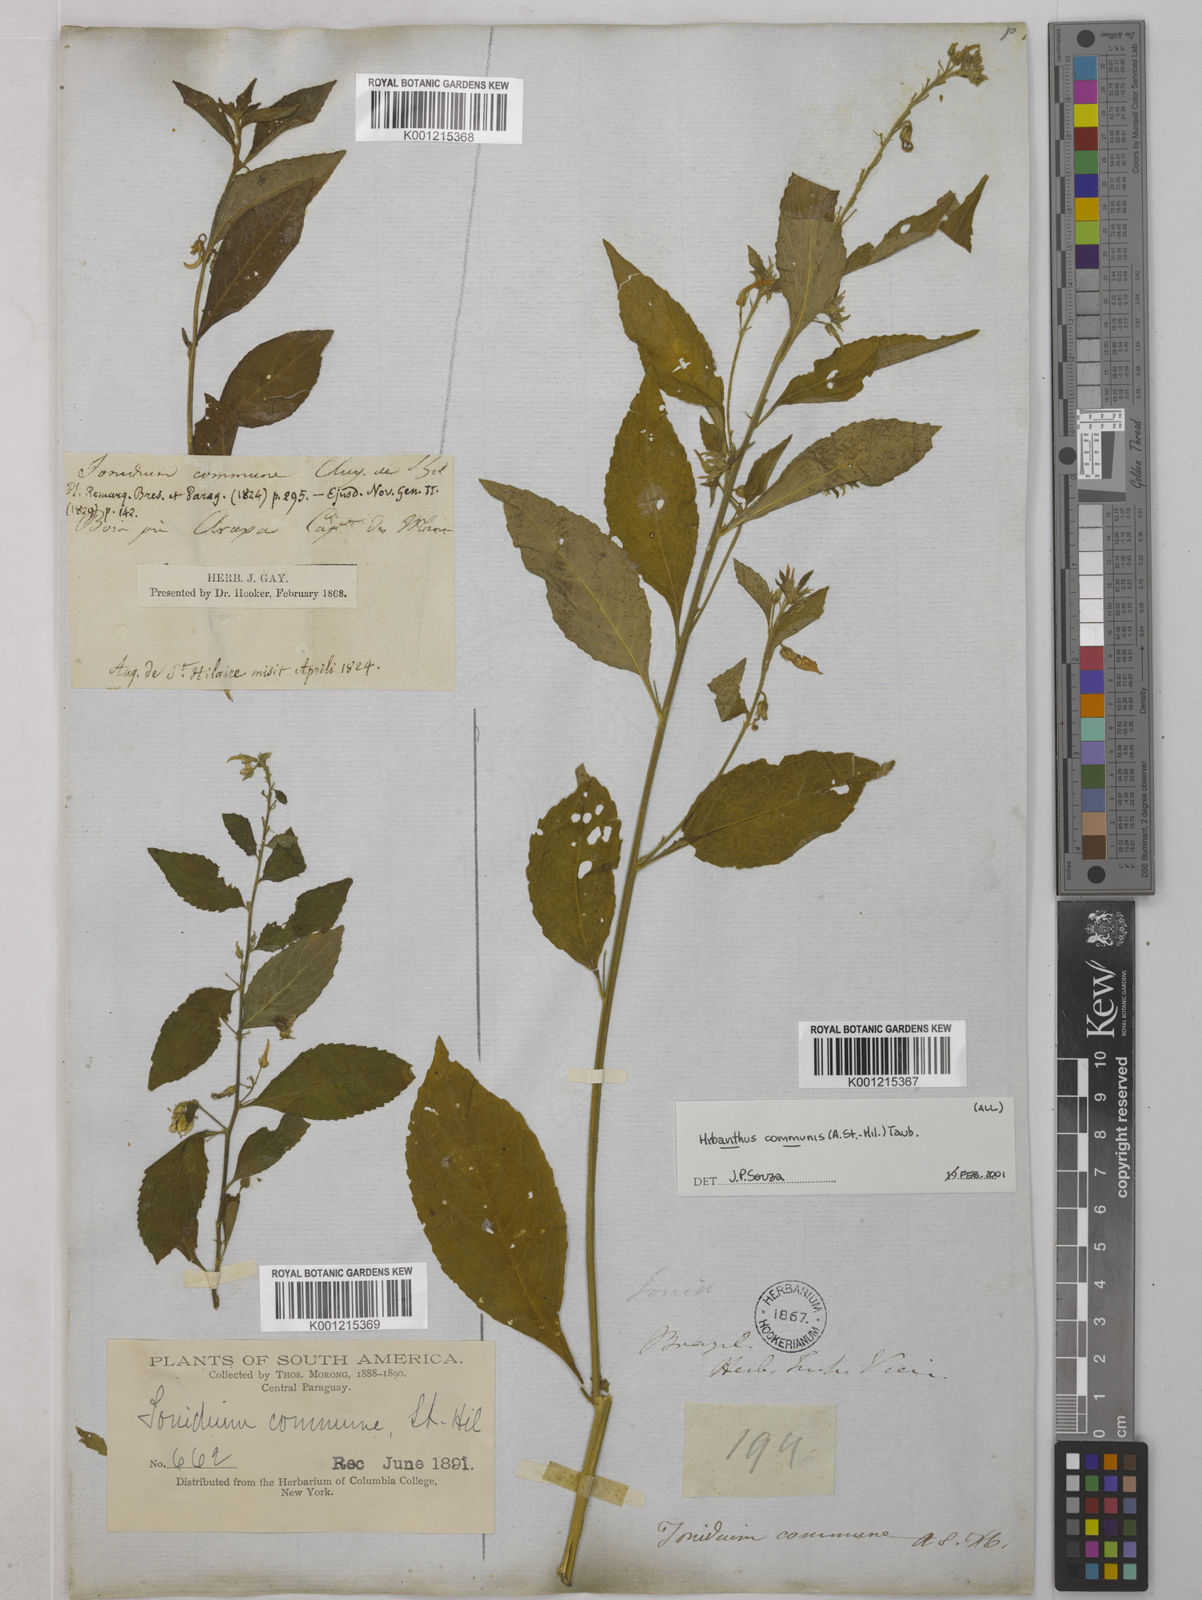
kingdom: Plantae
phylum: Tracheophyta
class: Magnoliopsida
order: Malpighiales
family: Violaceae
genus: Pombalia
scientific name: Pombalia communis
